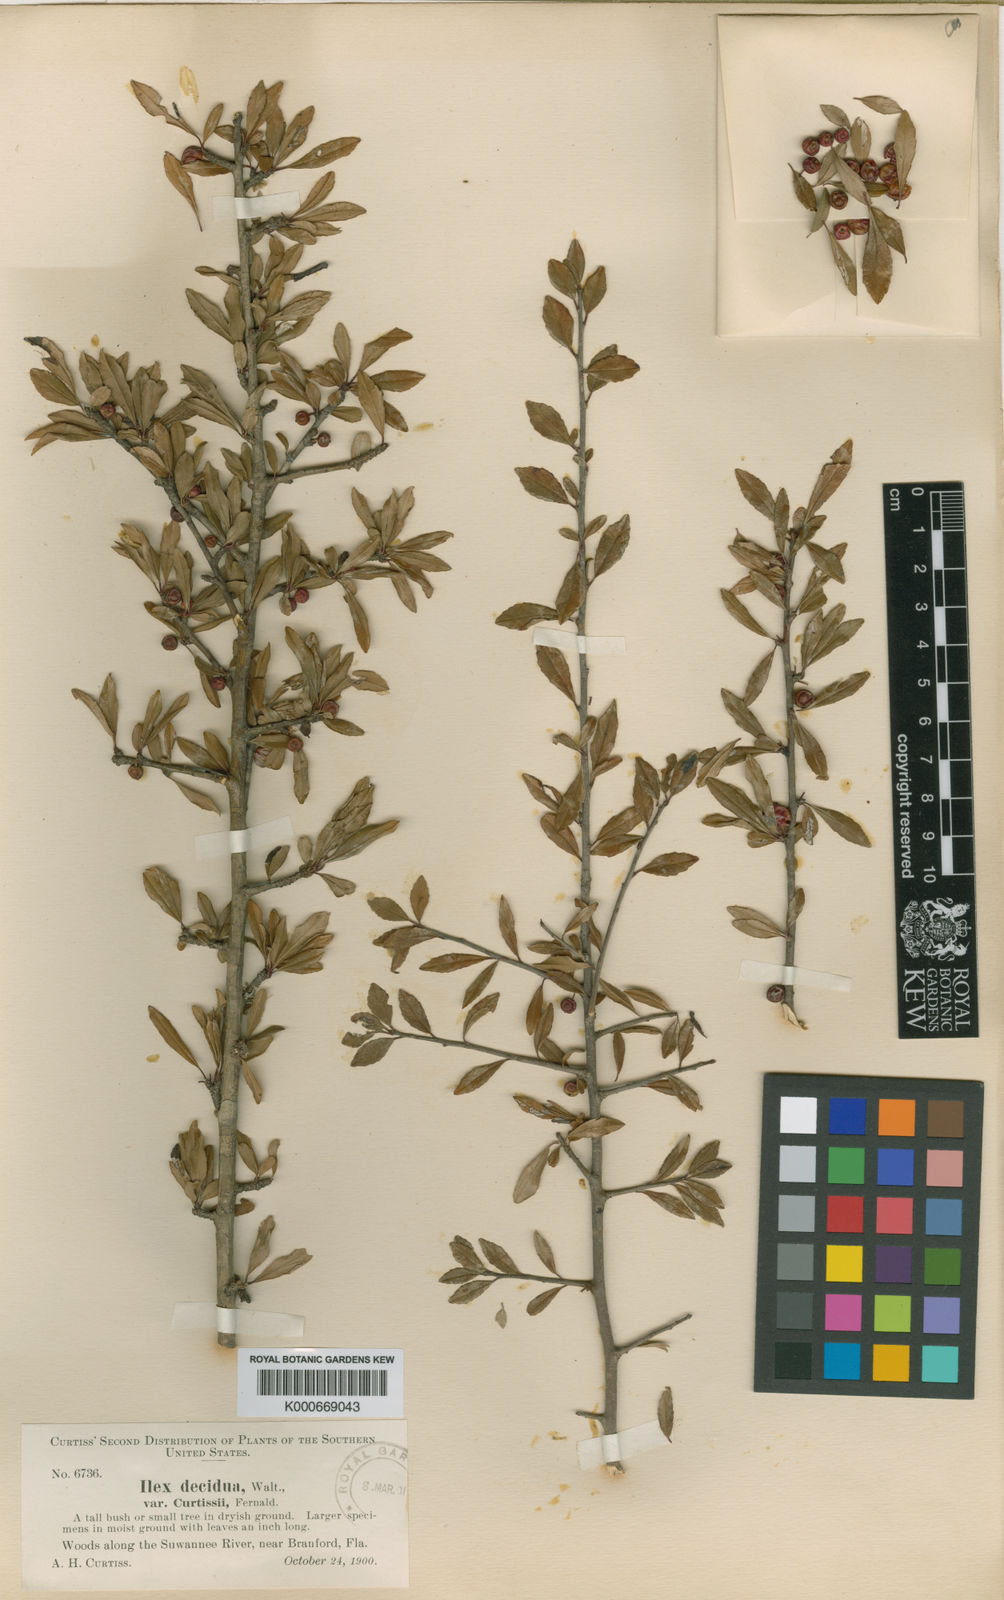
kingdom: Plantae
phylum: Tracheophyta
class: Magnoliopsida
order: Aquifoliales
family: Aquifoliaceae
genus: Ilex
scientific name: Ilex curtissii
